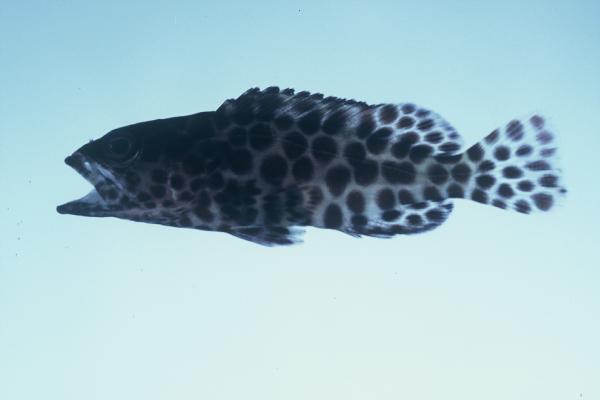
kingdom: Animalia
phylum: Chordata
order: Perciformes
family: Serranidae
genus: Epinephelus
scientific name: Epinephelus merra
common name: Honeycomb grouper
